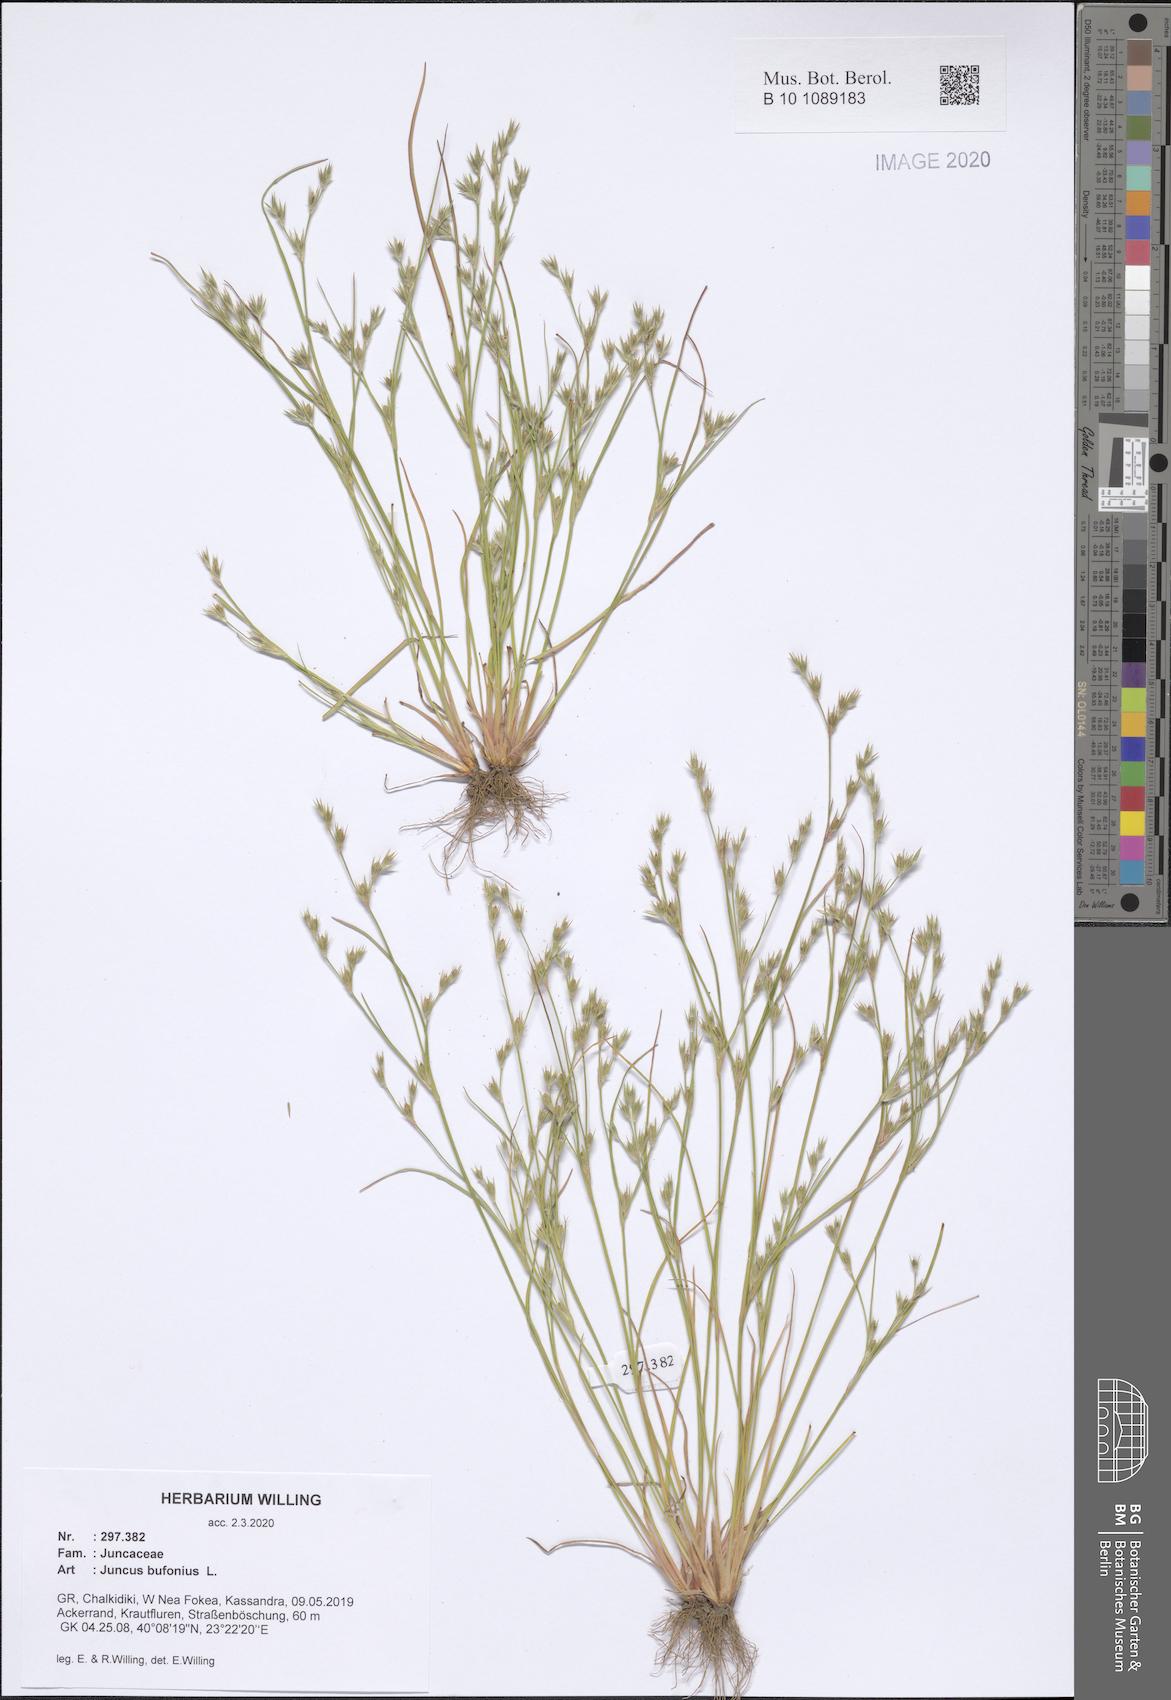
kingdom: Plantae
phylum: Tracheophyta
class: Liliopsida
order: Poales
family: Juncaceae
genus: Juncus
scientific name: Juncus bufonius
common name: Toad rush
